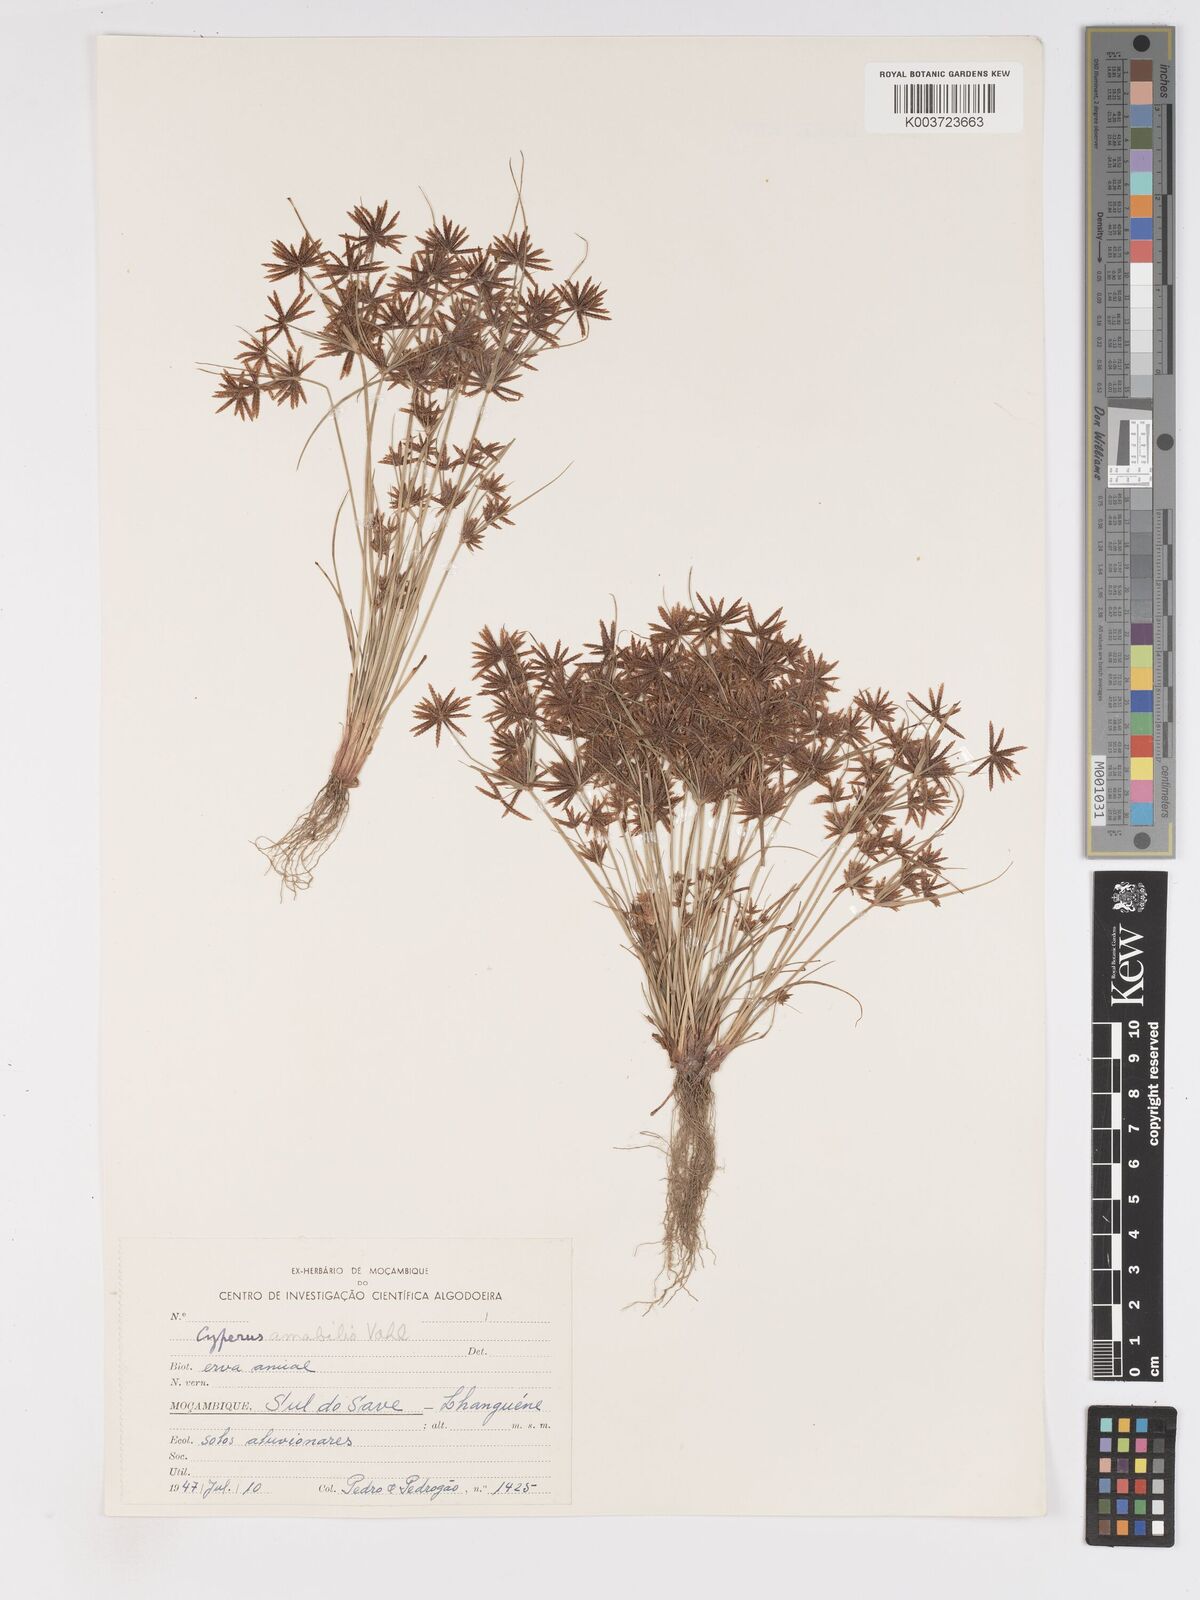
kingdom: Plantae
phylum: Tracheophyta
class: Liliopsida
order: Poales
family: Cyperaceae
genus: Cyperus
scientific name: Cyperus amabilis
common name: Foothill flat sedge
